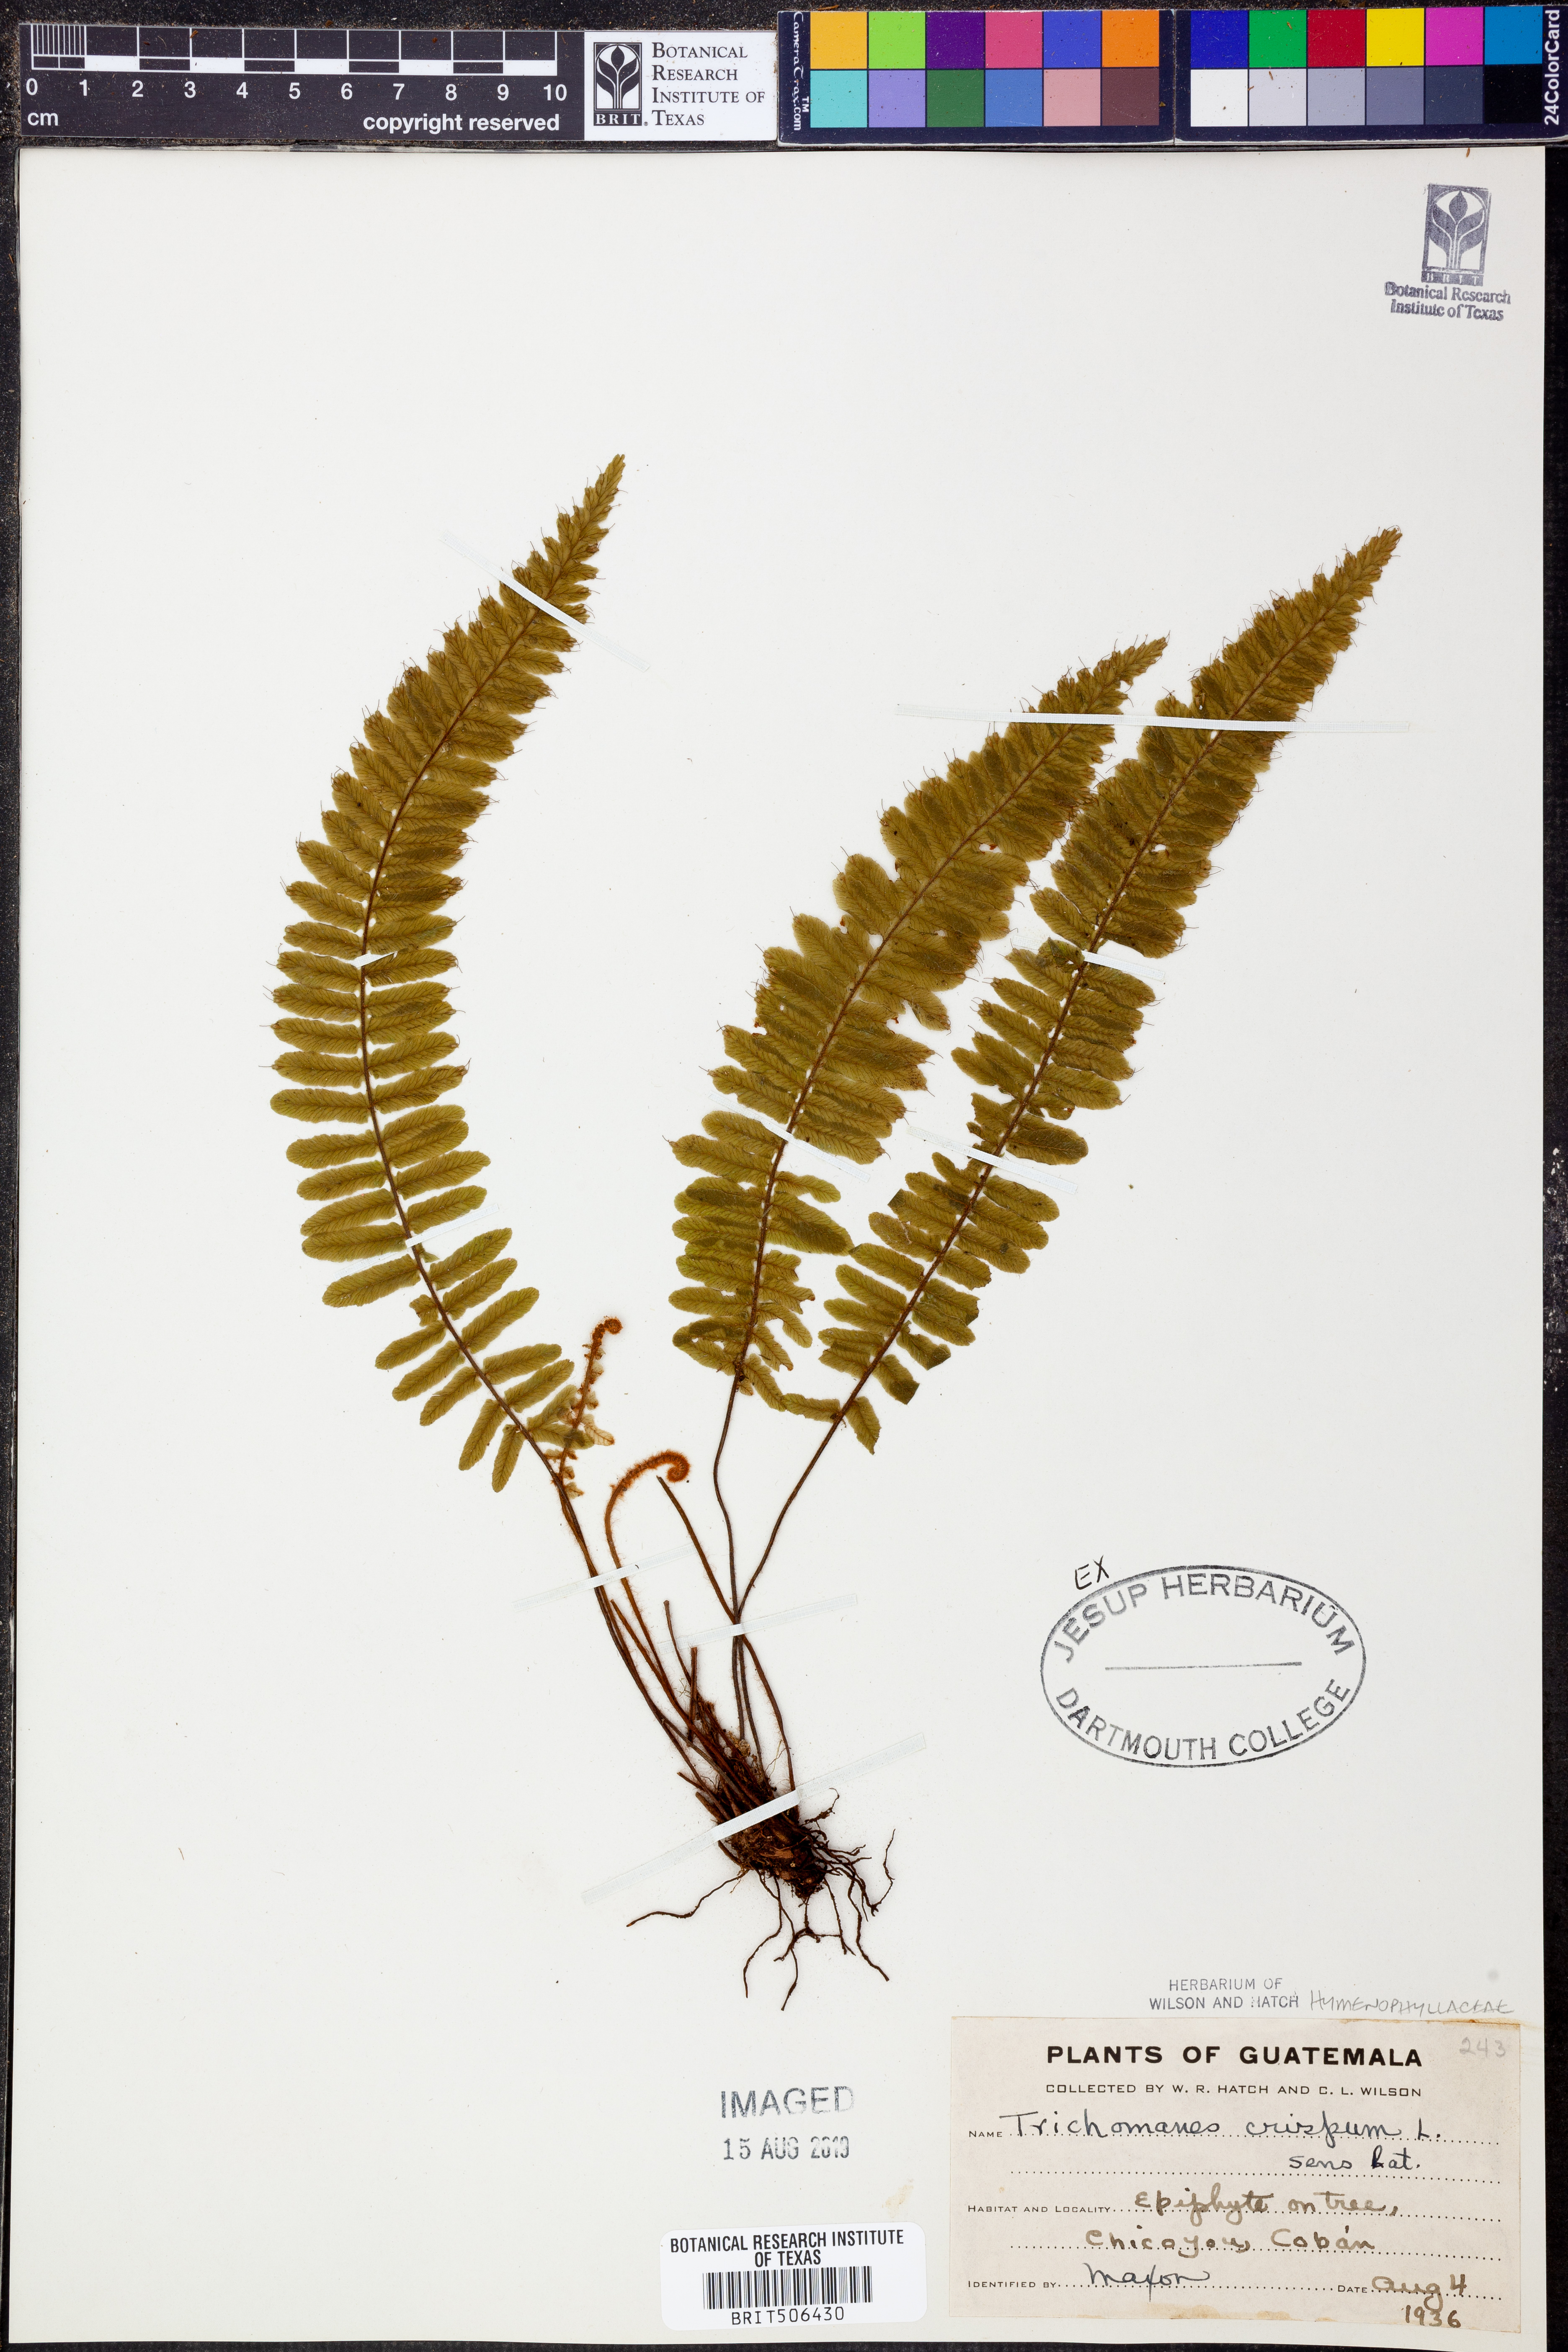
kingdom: Plantae
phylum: Tracheophyta
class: Polypodiopsida
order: Hymenophyllales
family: Hymenophyllaceae
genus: Trichomanes
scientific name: Trichomanes crispum
